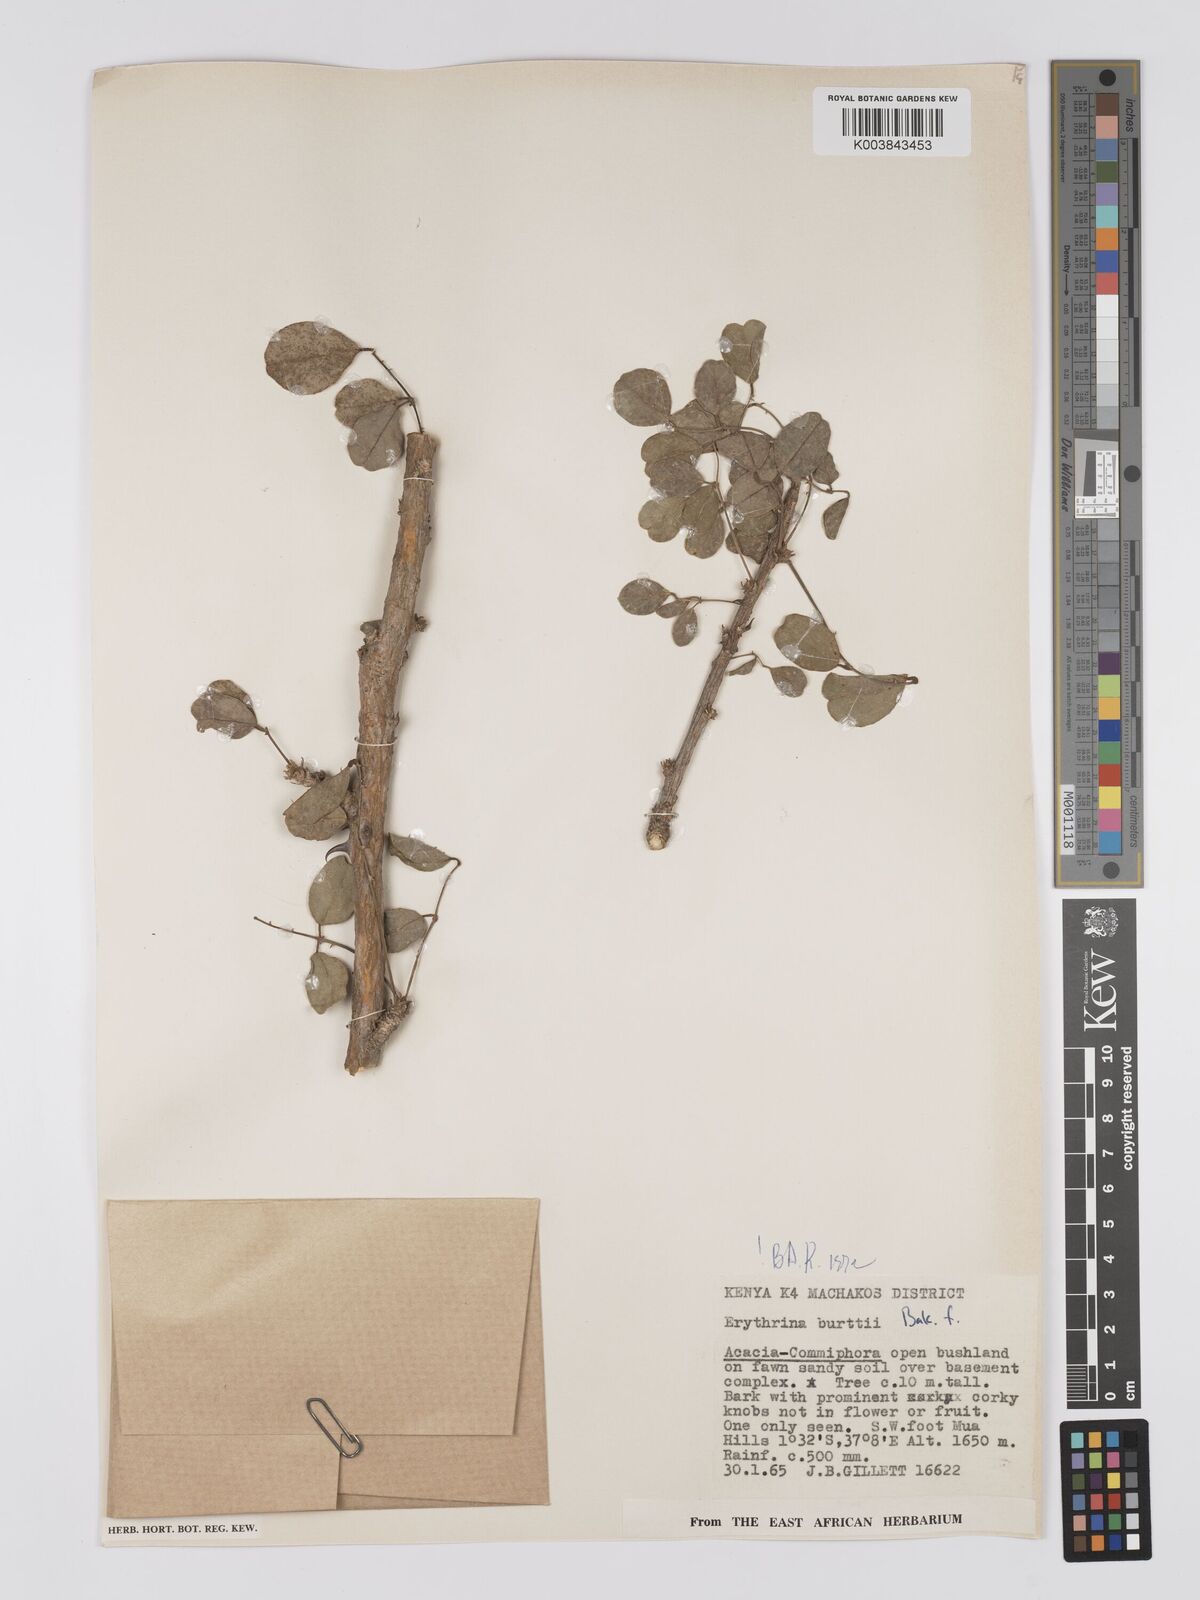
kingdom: Plantae
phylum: Tracheophyta
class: Magnoliopsida
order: Fabales
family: Fabaceae
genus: Erythrina
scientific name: Erythrina burttii
